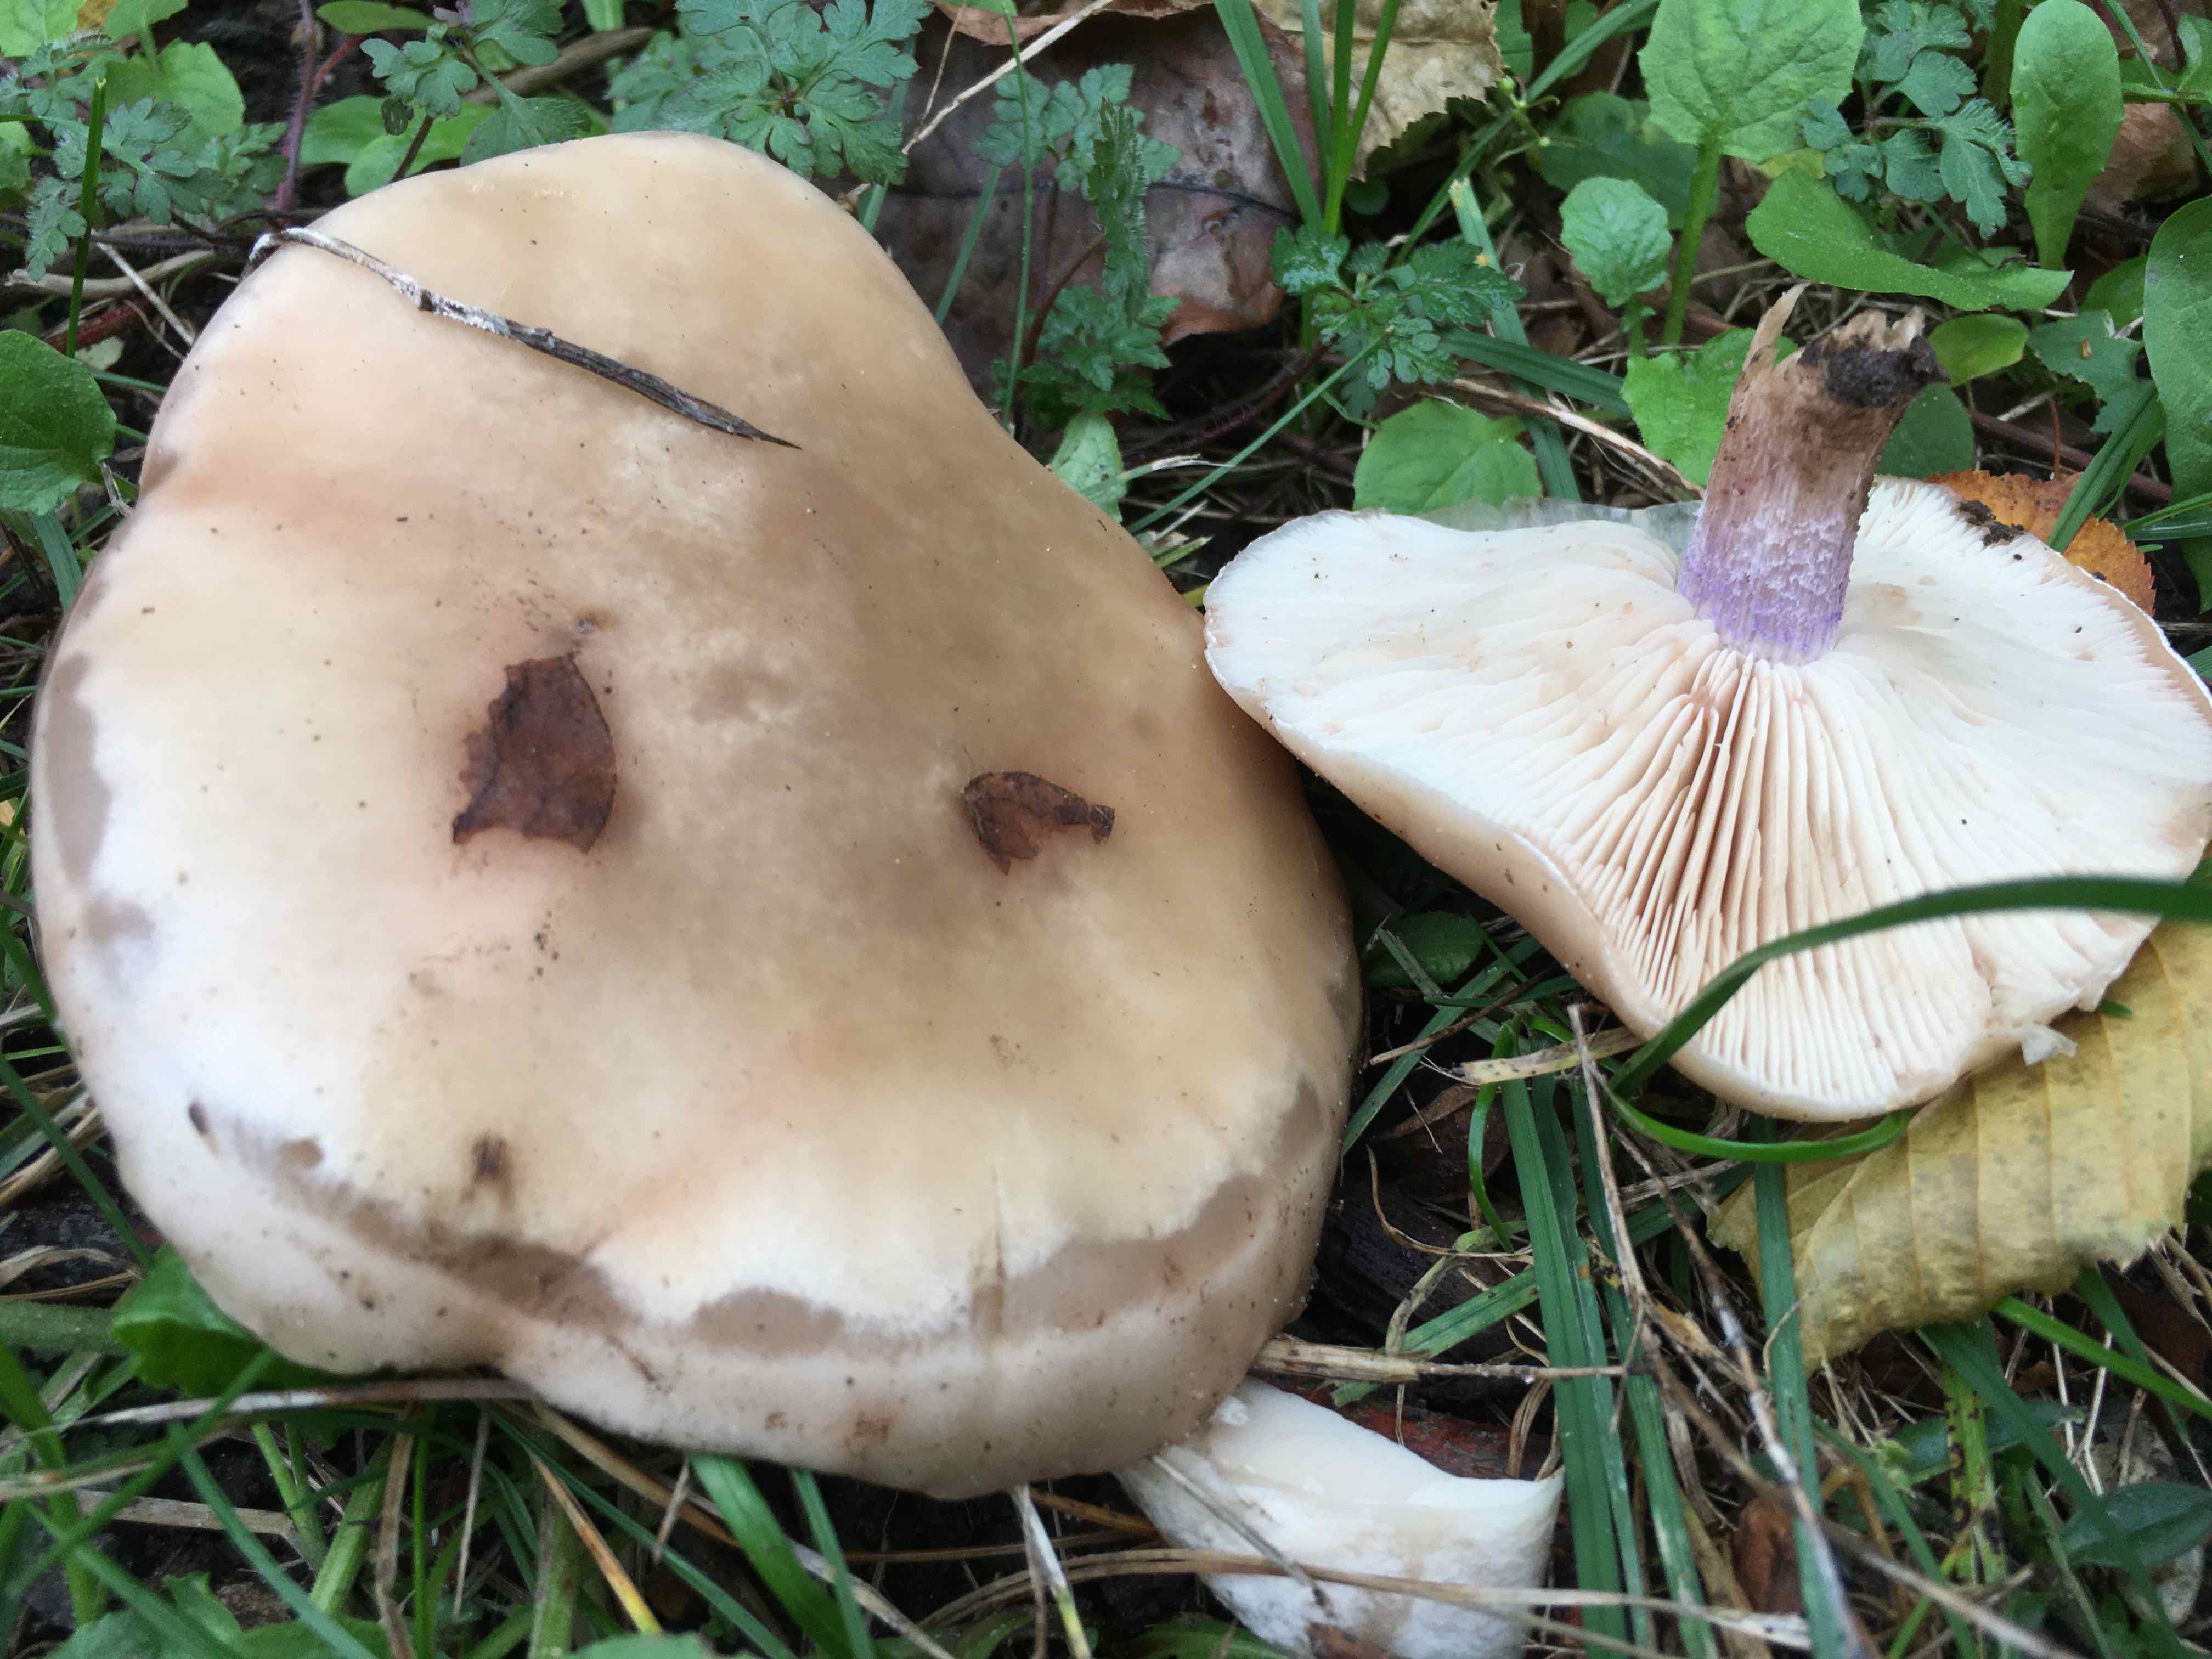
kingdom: Fungi
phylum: Basidiomycota
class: Agaricomycetes
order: Agaricales
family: Tricholomataceae
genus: Lepista
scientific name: Lepista personata
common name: bleg hekseringshat
